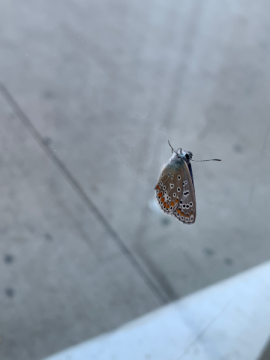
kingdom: Animalia
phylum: Arthropoda
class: Insecta
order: Lepidoptera
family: Lycaenidae
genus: Polyommatus
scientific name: Polyommatus icarus
